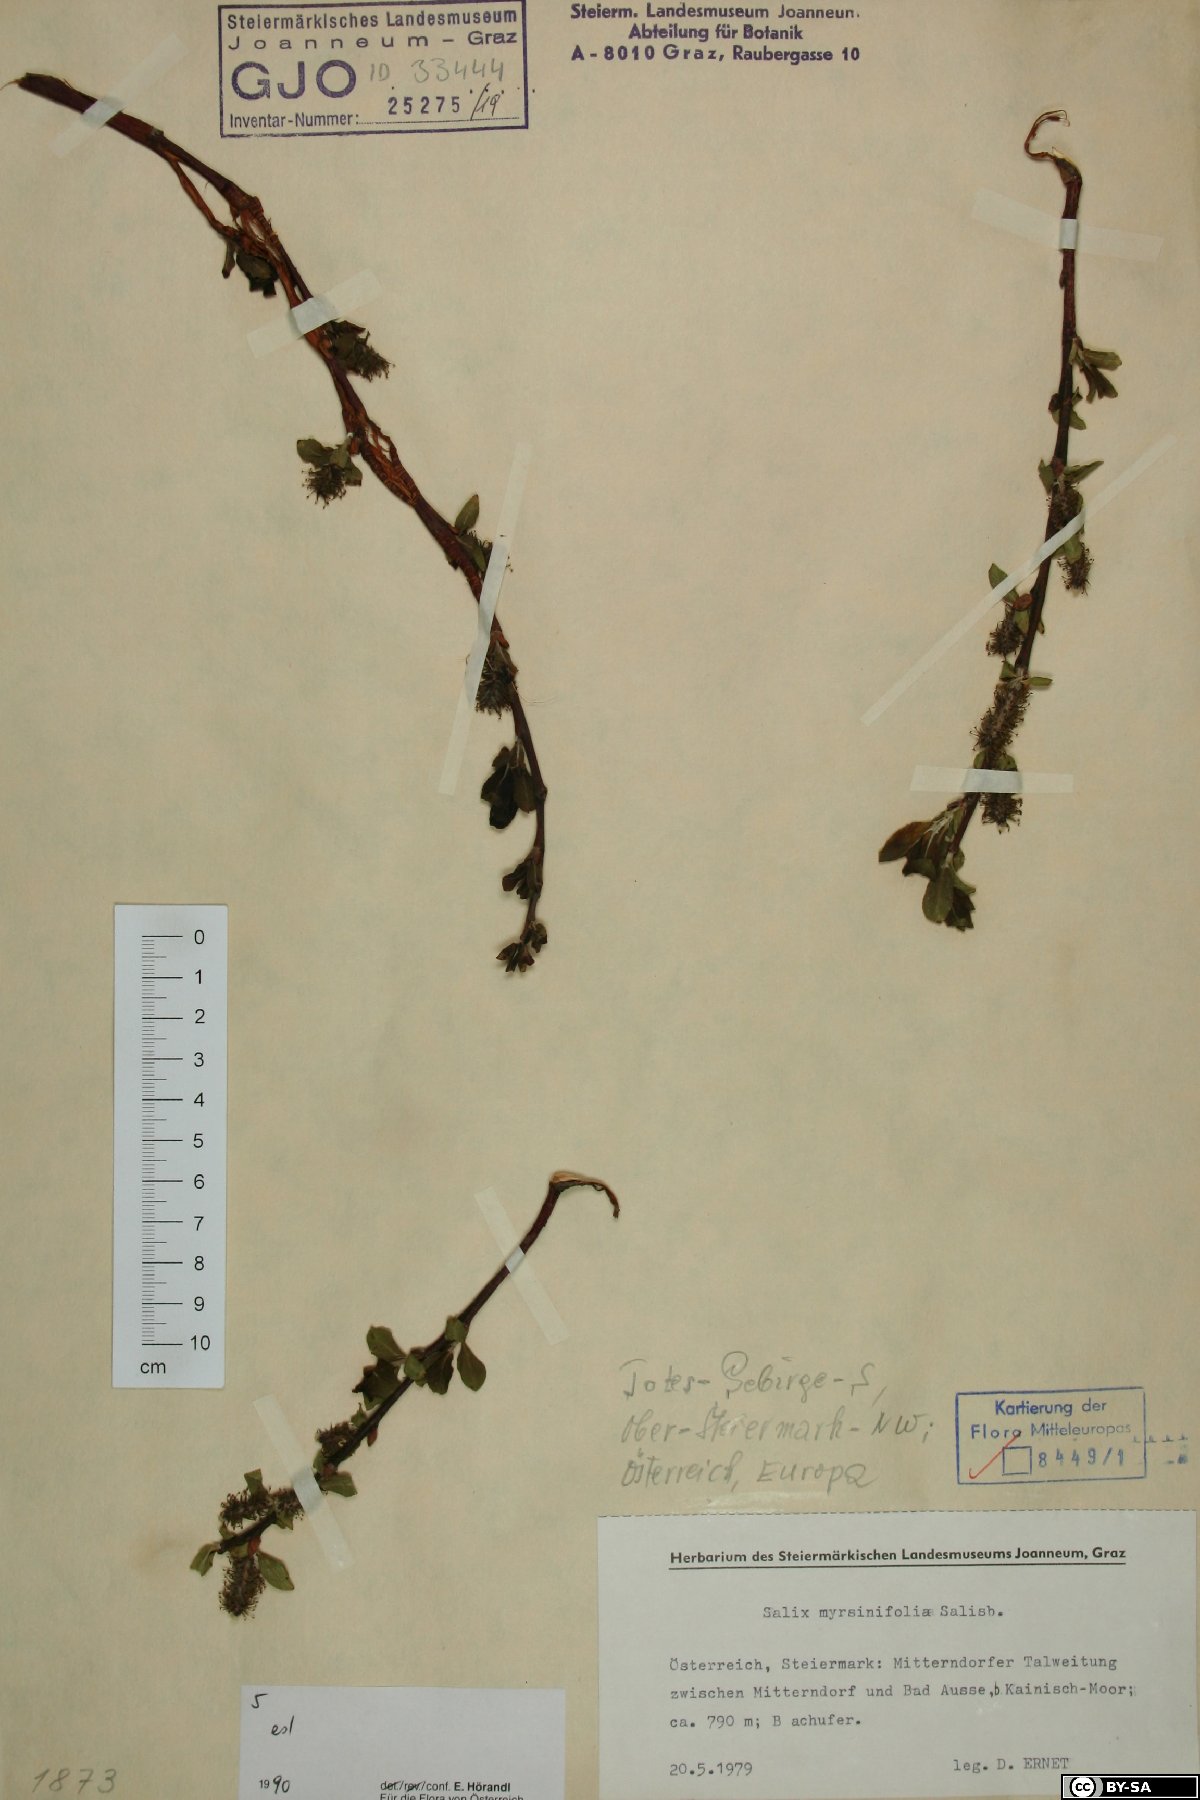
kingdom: Plantae
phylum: Tracheophyta
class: Magnoliopsida
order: Malpighiales
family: Salicaceae
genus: Salix
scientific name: Salix myrsinifolia
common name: Dark-leaved willow
